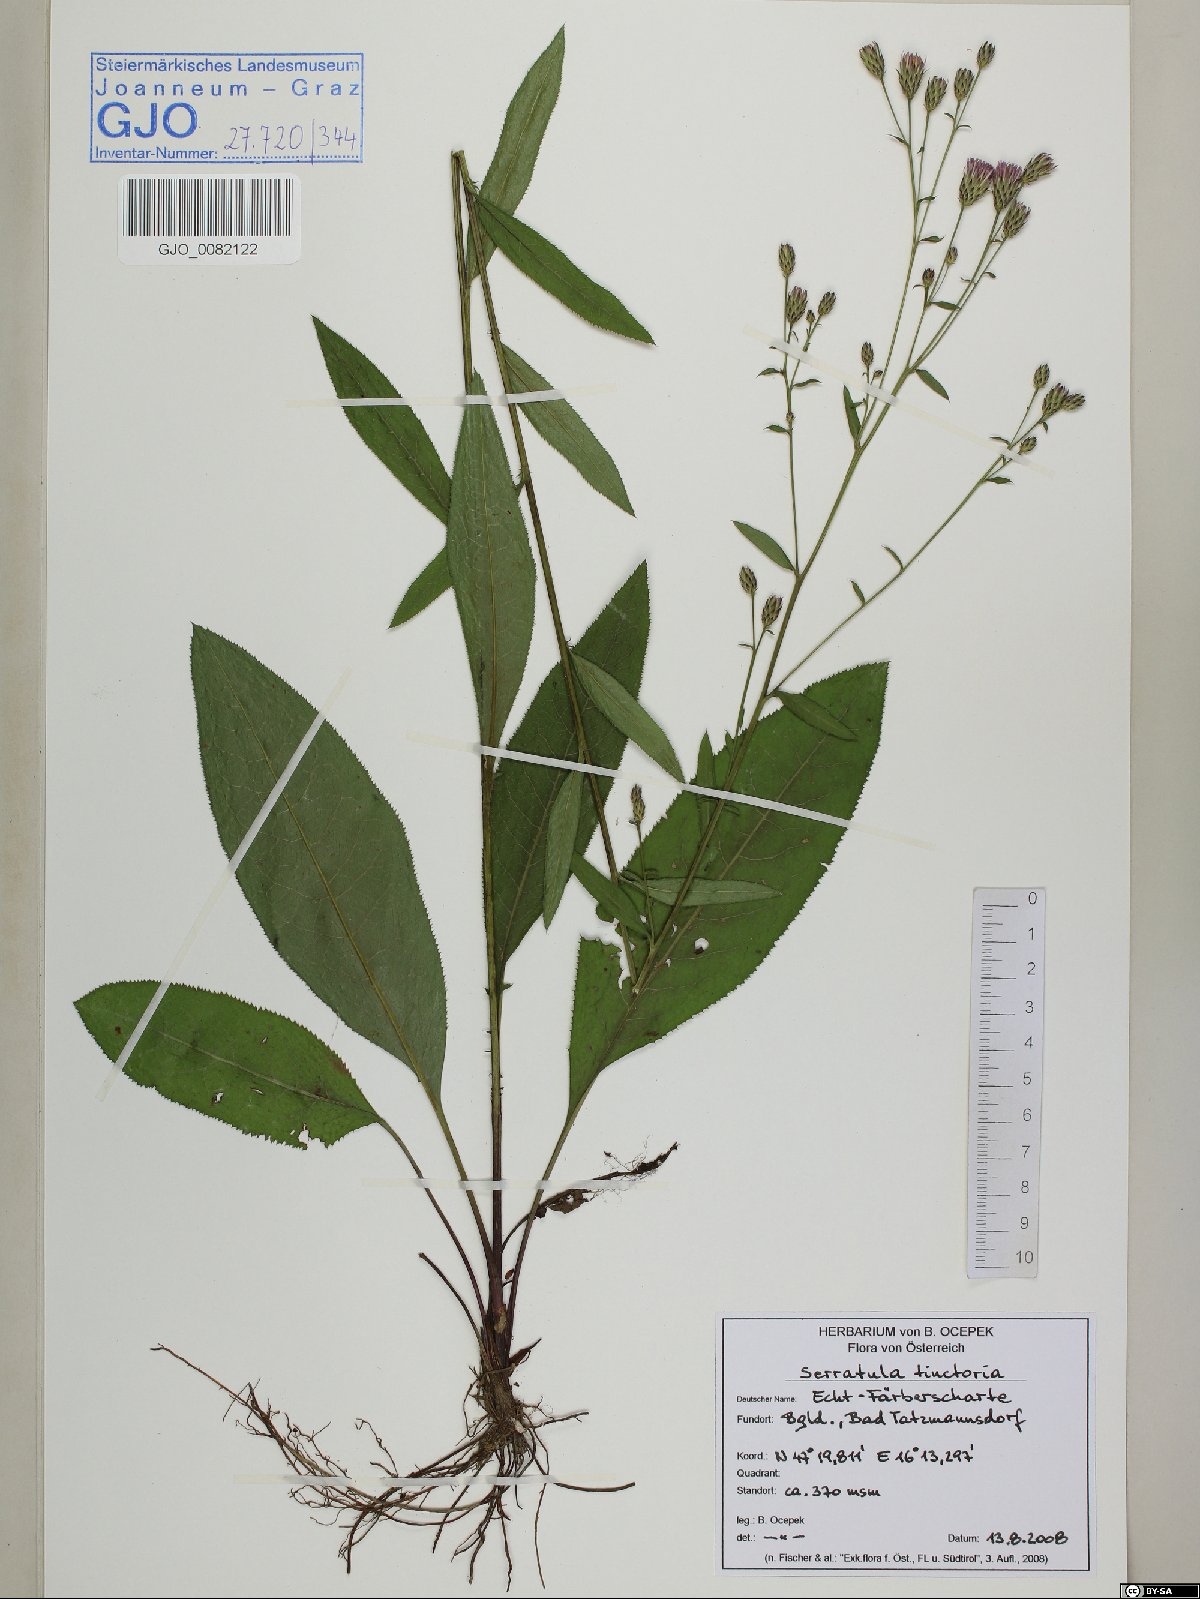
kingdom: Plantae
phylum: Tracheophyta
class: Magnoliopsida
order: Asterales
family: Asteraceae
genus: Serratula
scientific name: Serratula tinctoria
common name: Saw-wort
